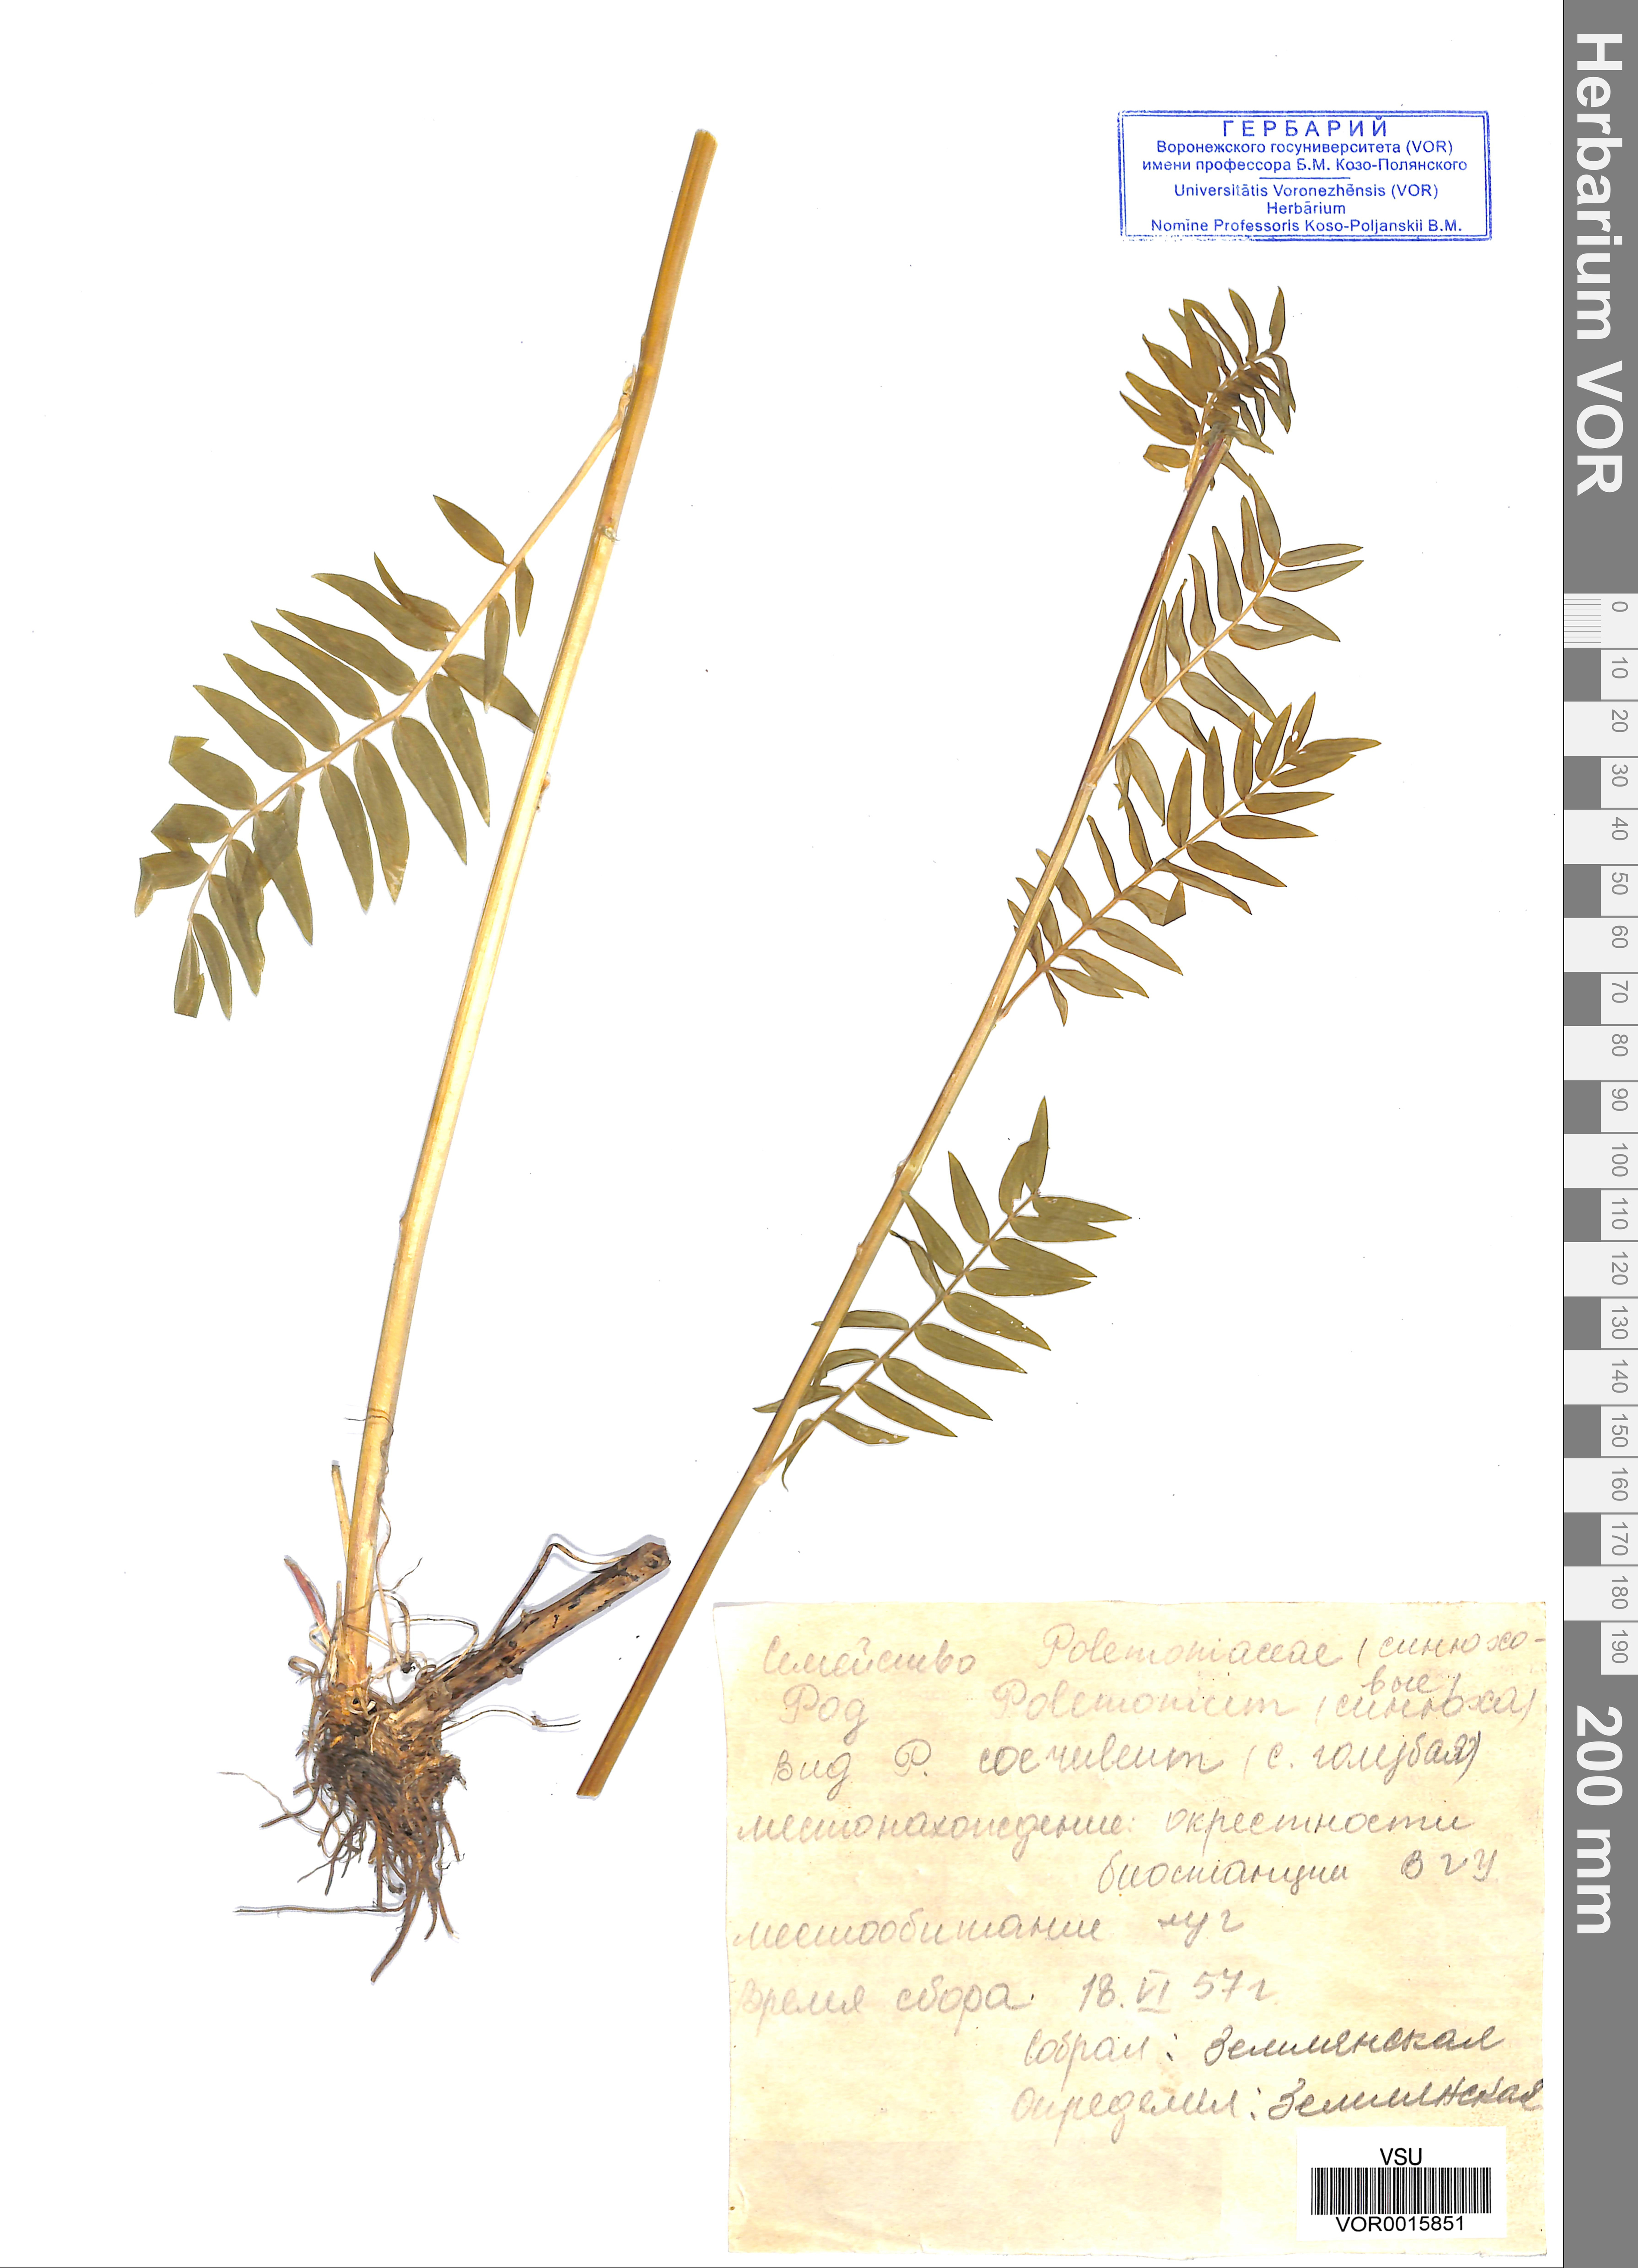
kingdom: Plantae
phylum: Tracheophyta
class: Magnoliopsida
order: Ericales
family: Polemoniaceae
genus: Polemonium
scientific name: Polemonium caeruleum
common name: Jacob's-ladder
